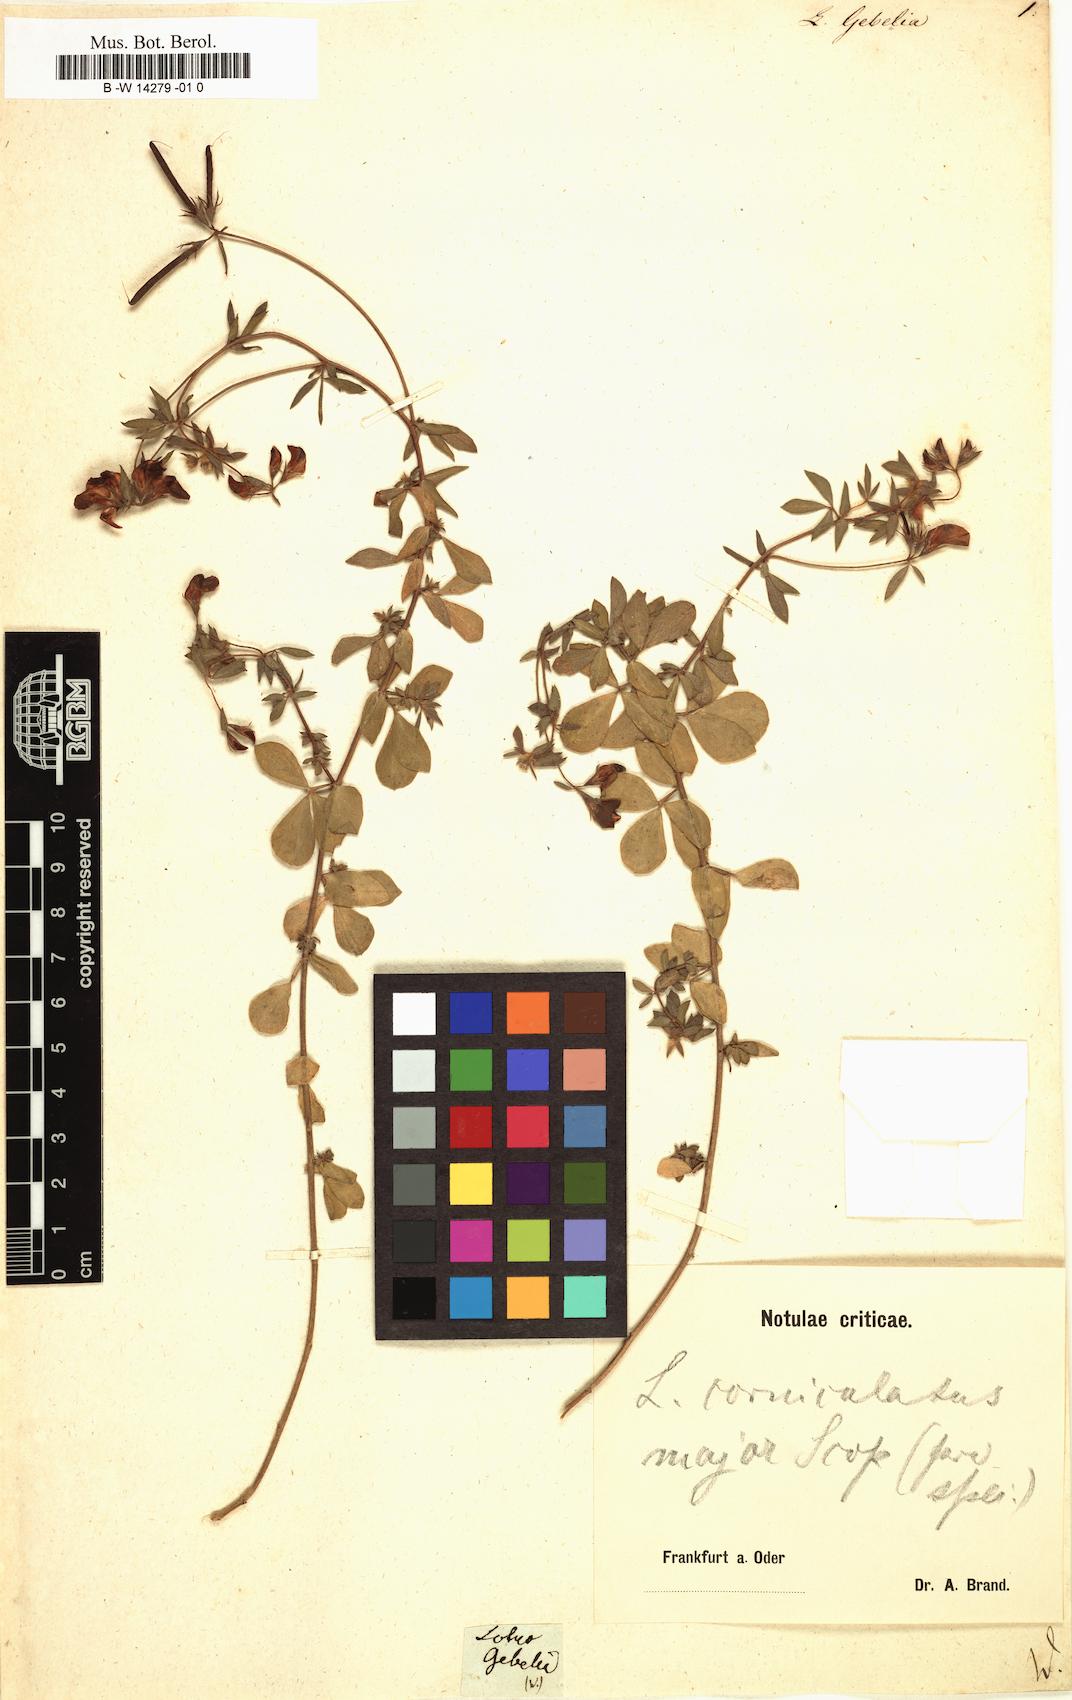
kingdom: Plantae
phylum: Tracheophyta
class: Magnoliopsida
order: Fabales
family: Fabaceae
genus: Lotus
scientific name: Lotus gebelia
